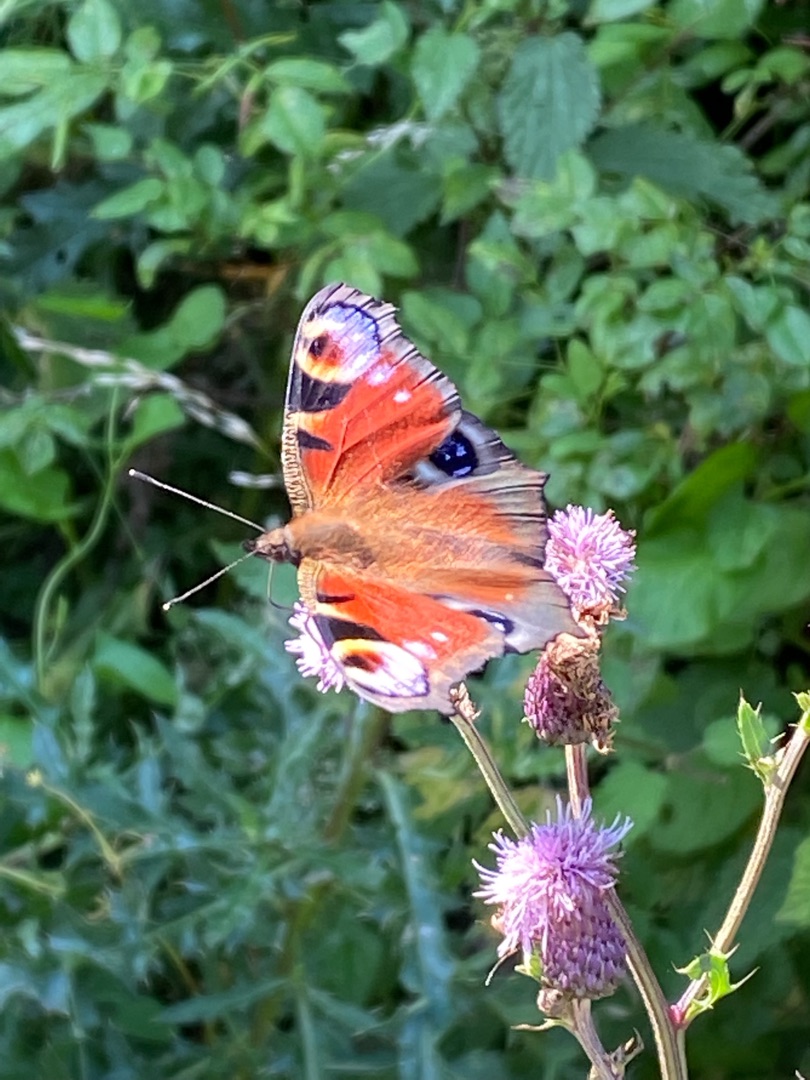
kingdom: Animalia
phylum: Arthropoda
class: Insecta
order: Lepidoptera
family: Nymphalidae
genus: Aglais
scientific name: Aglais io
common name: Dagpåfugleøje
